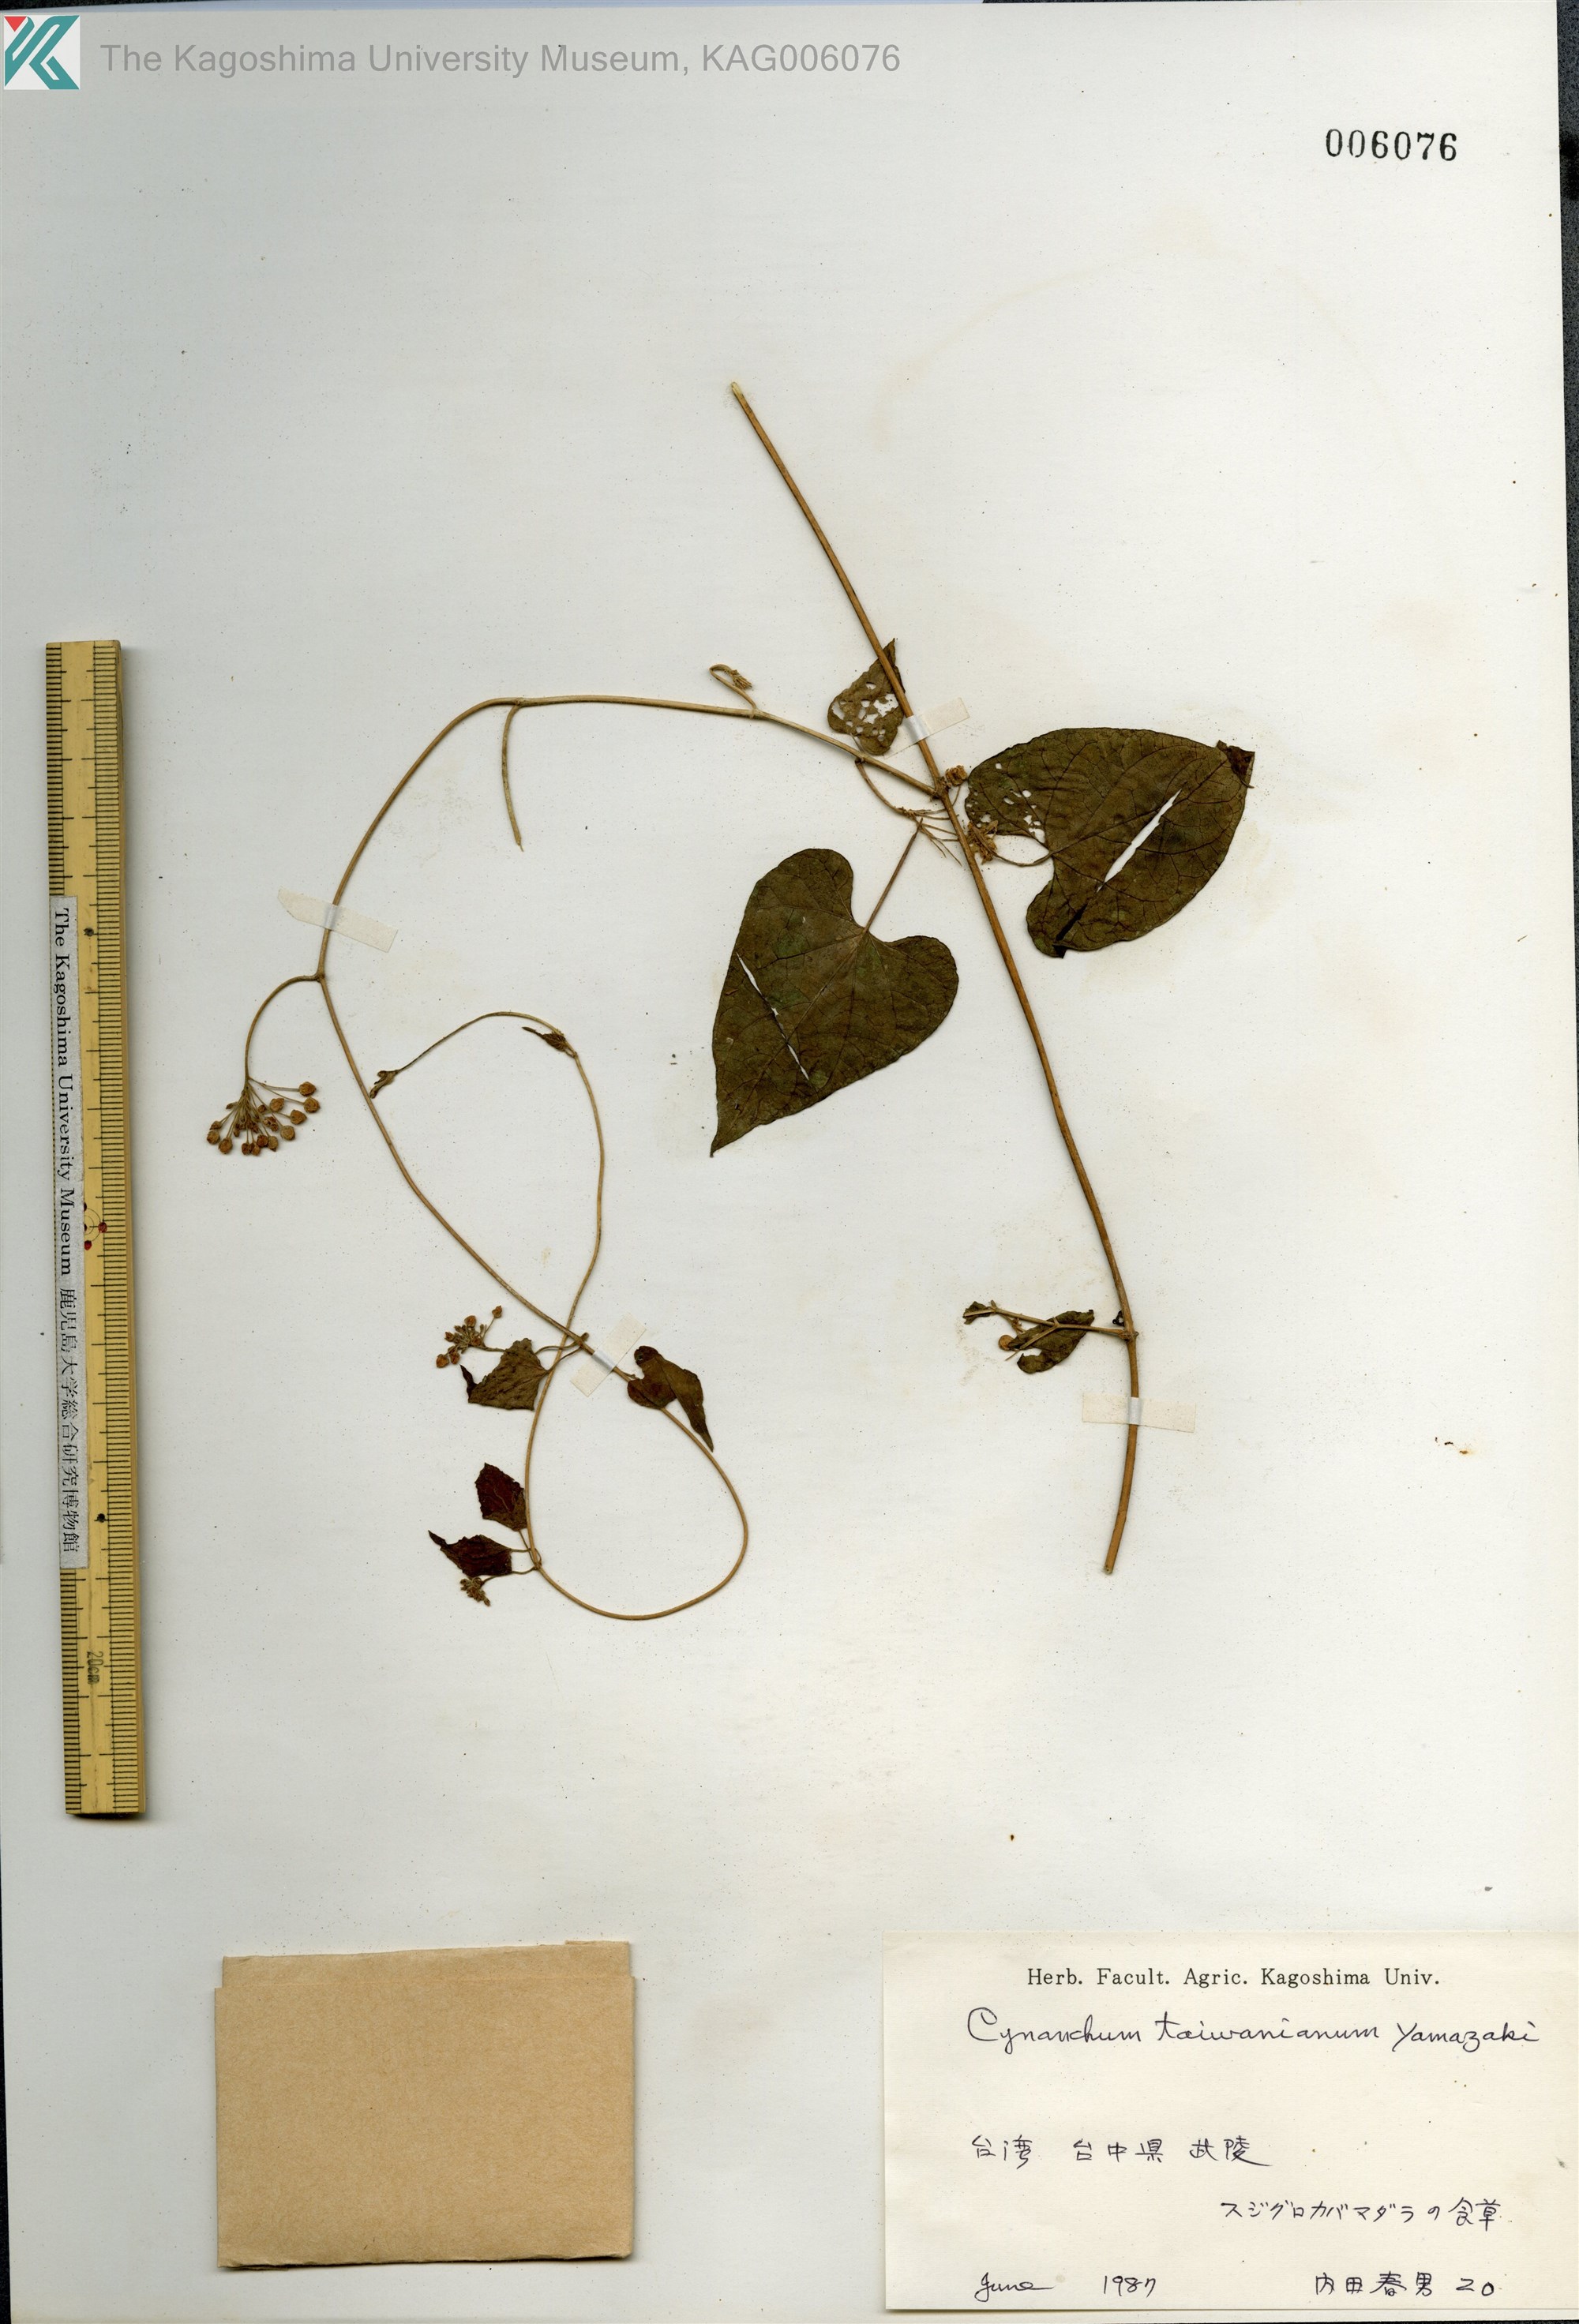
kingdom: Plantae
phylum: Tracheophyta
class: Magnoliopsida
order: Gentianales
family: Apocynaceae
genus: Cynanchum
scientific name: Cynanchum boudieri
